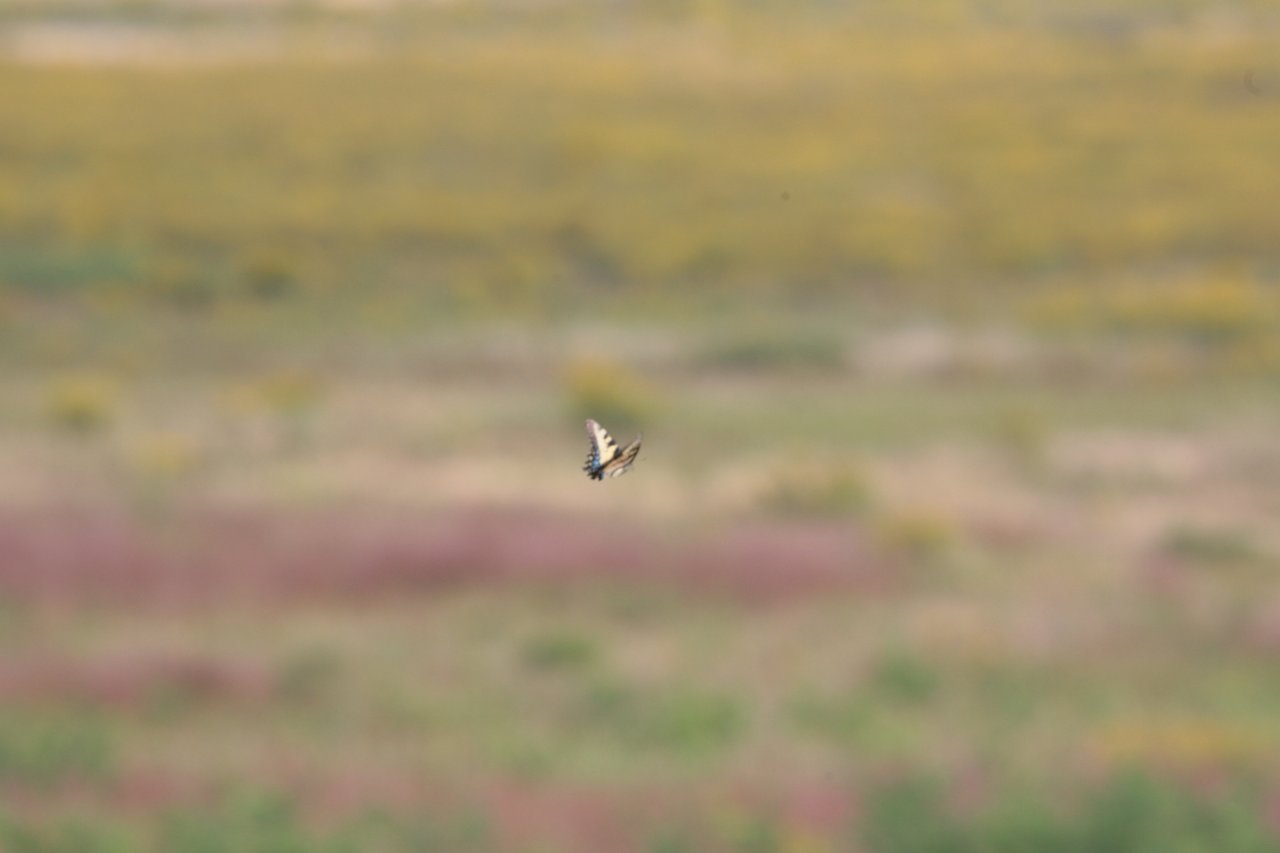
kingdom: Animalia
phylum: Arthropoda
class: Insecta
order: Lepidoptera
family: Papilionidae
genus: Pterourus
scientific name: Pterourus glaucus
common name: Eastern Tiger Swallowtail
